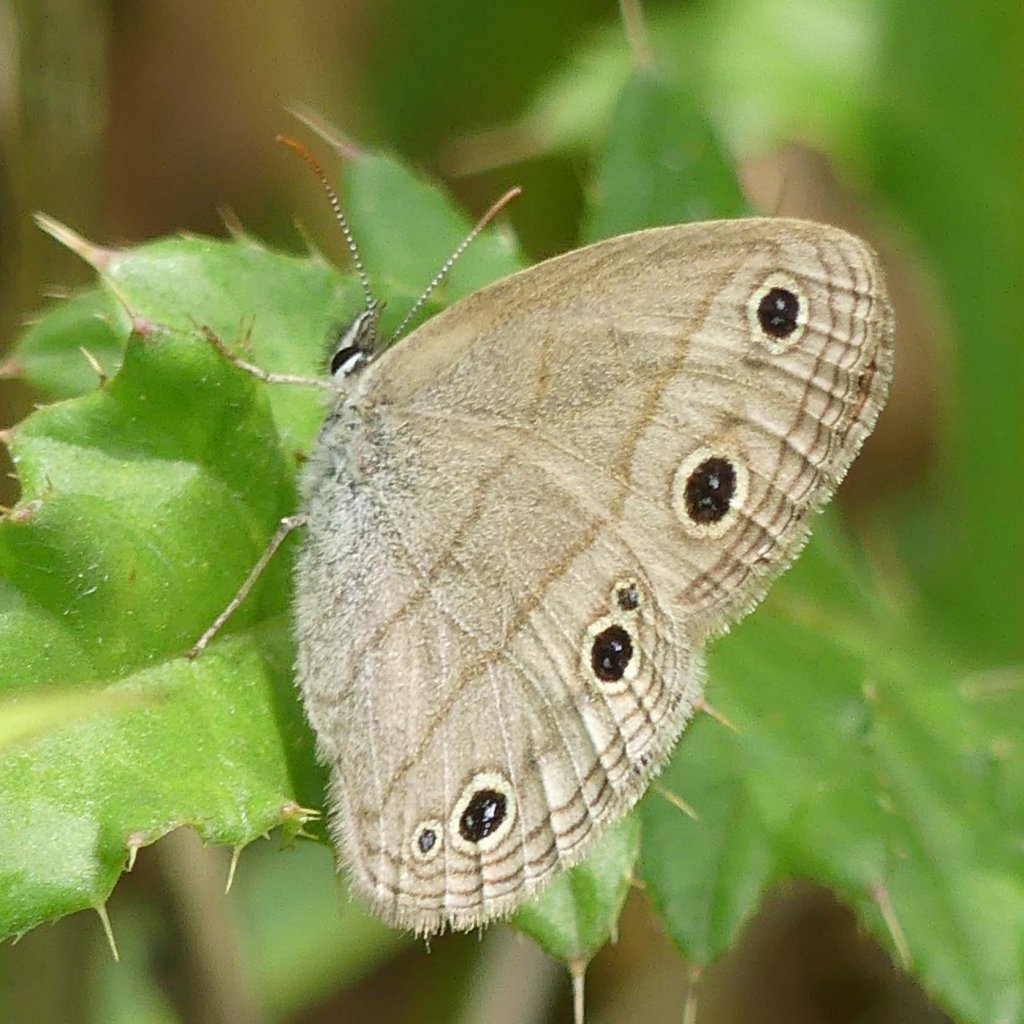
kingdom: Animalia
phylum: Arthropoda
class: Insecta
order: Lepidoptera
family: Nymphalidae
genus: Euptychia
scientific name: Euptychia cymela
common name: Little Wood Satyr
